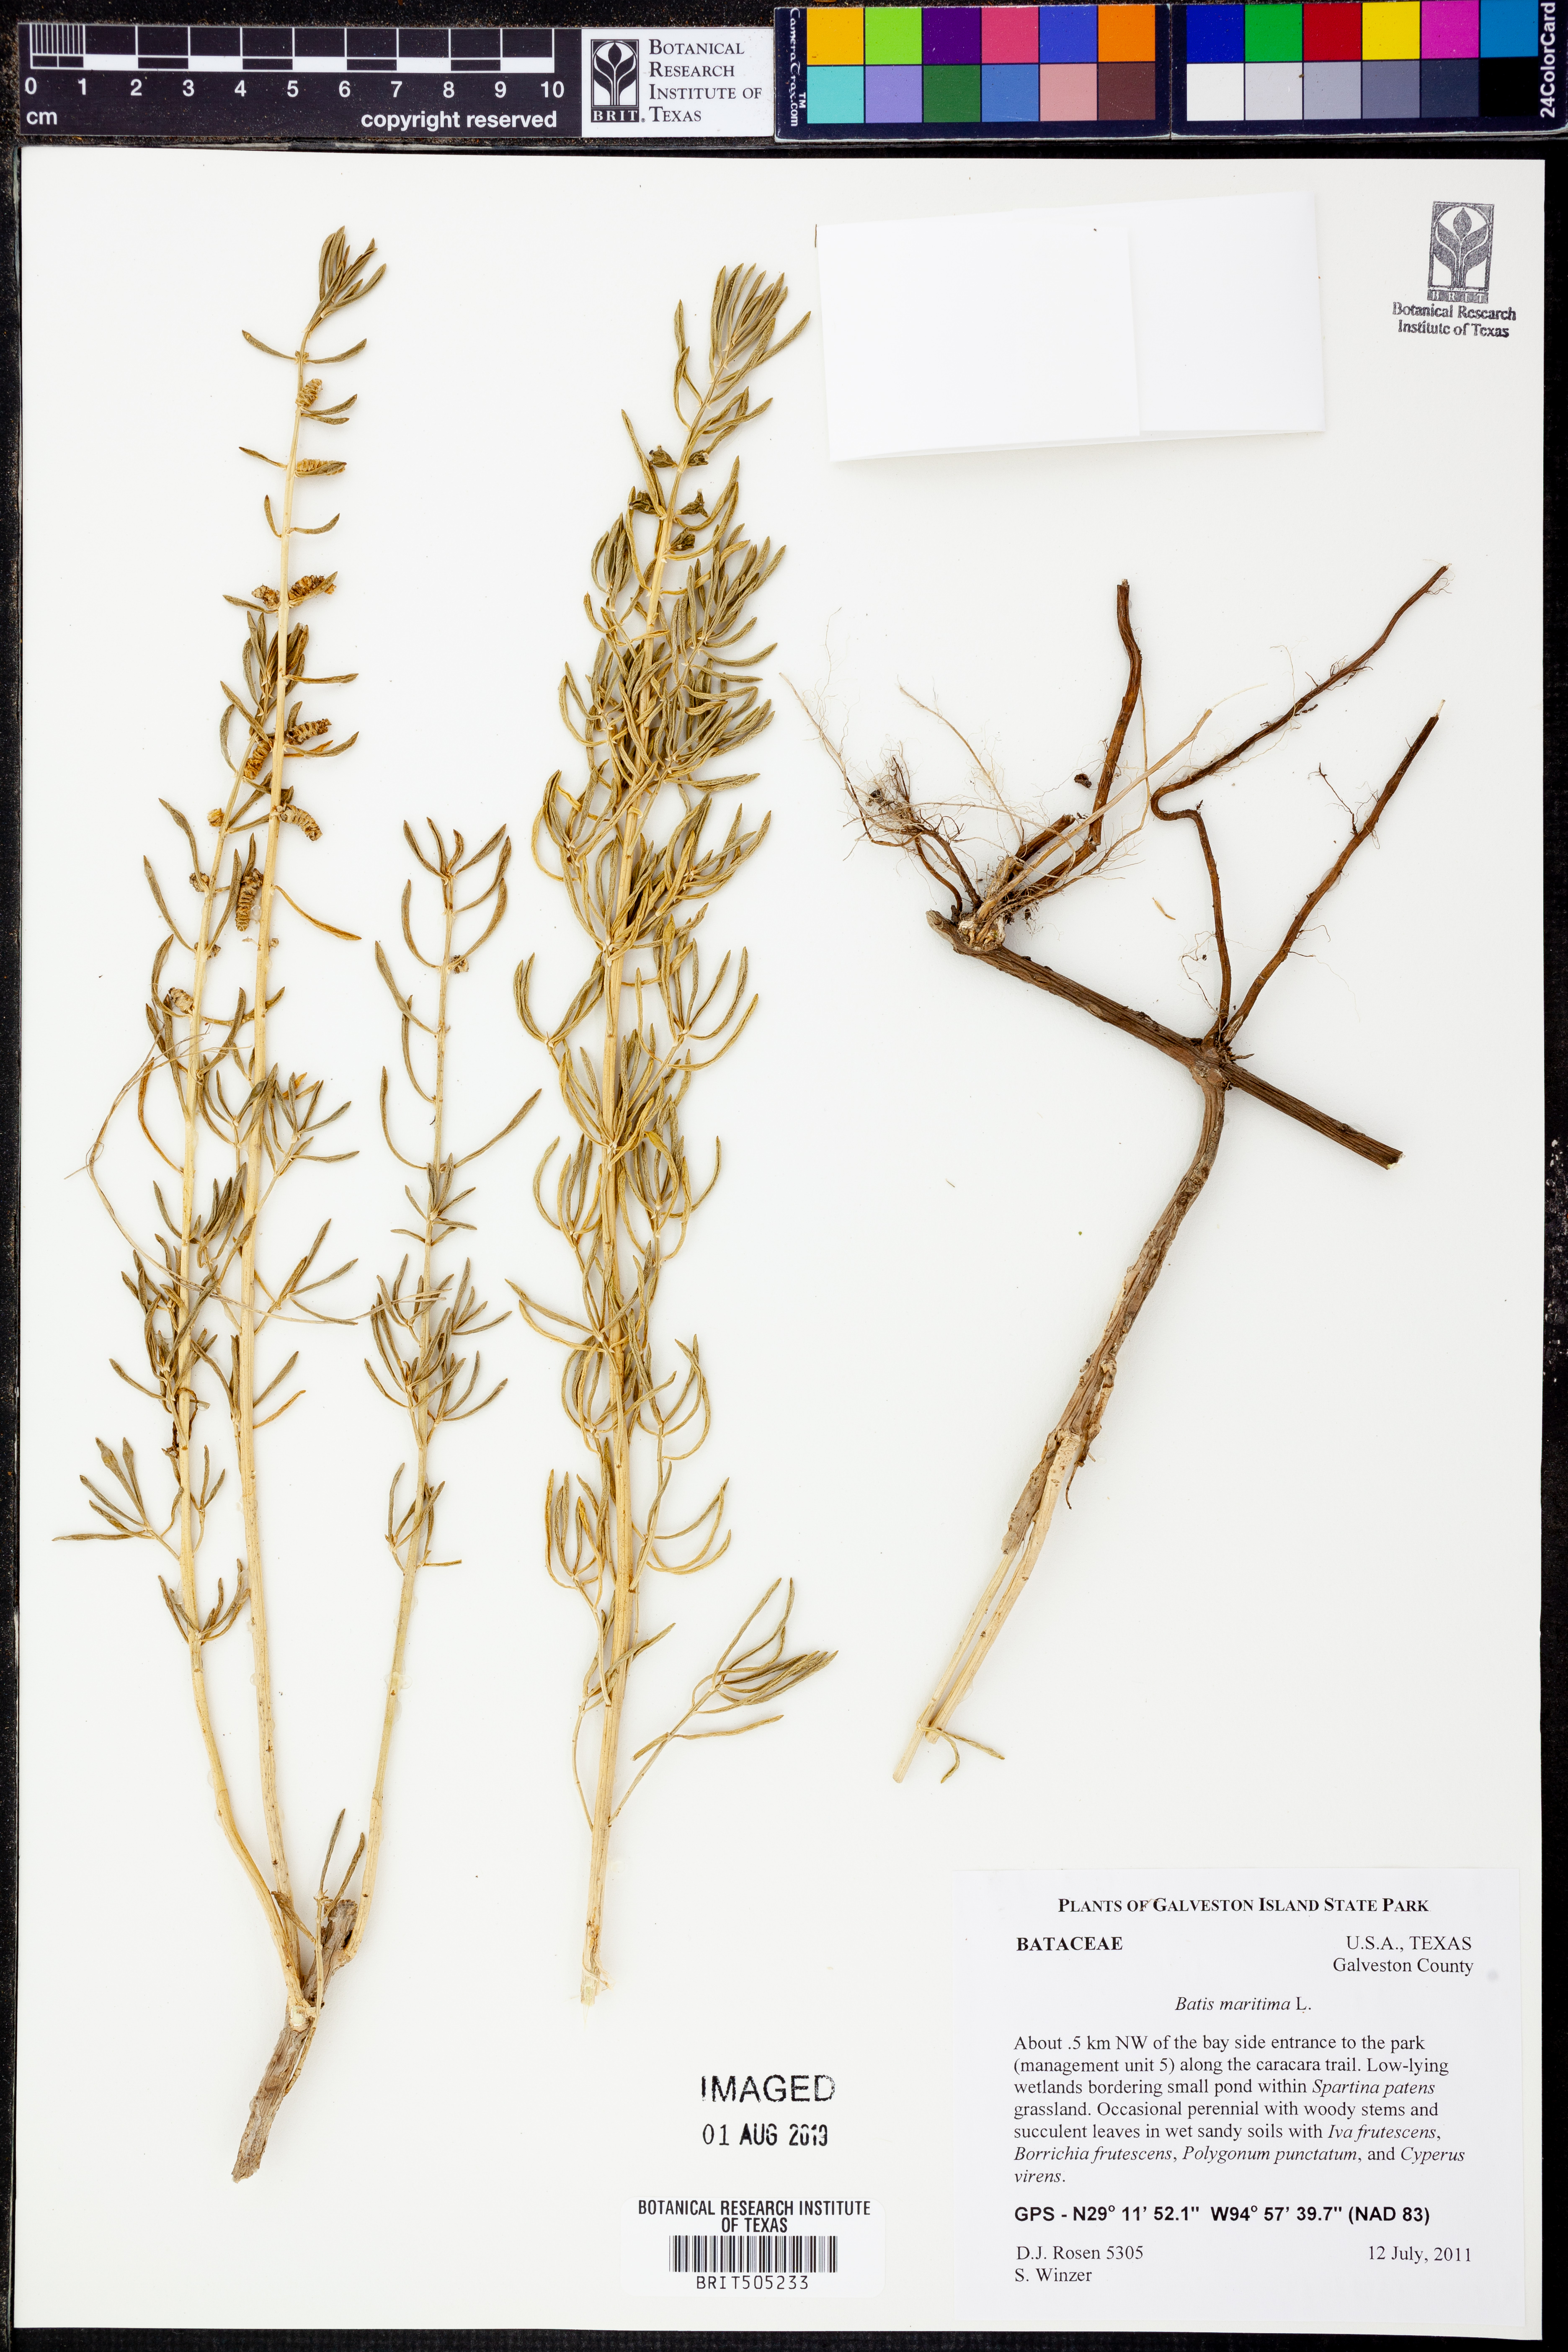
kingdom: Plantae
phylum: Tracheophyta
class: Magnoliopsida
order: Brassicales
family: Bataceae
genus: Batis
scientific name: Batis maritima
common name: Turtleweed
